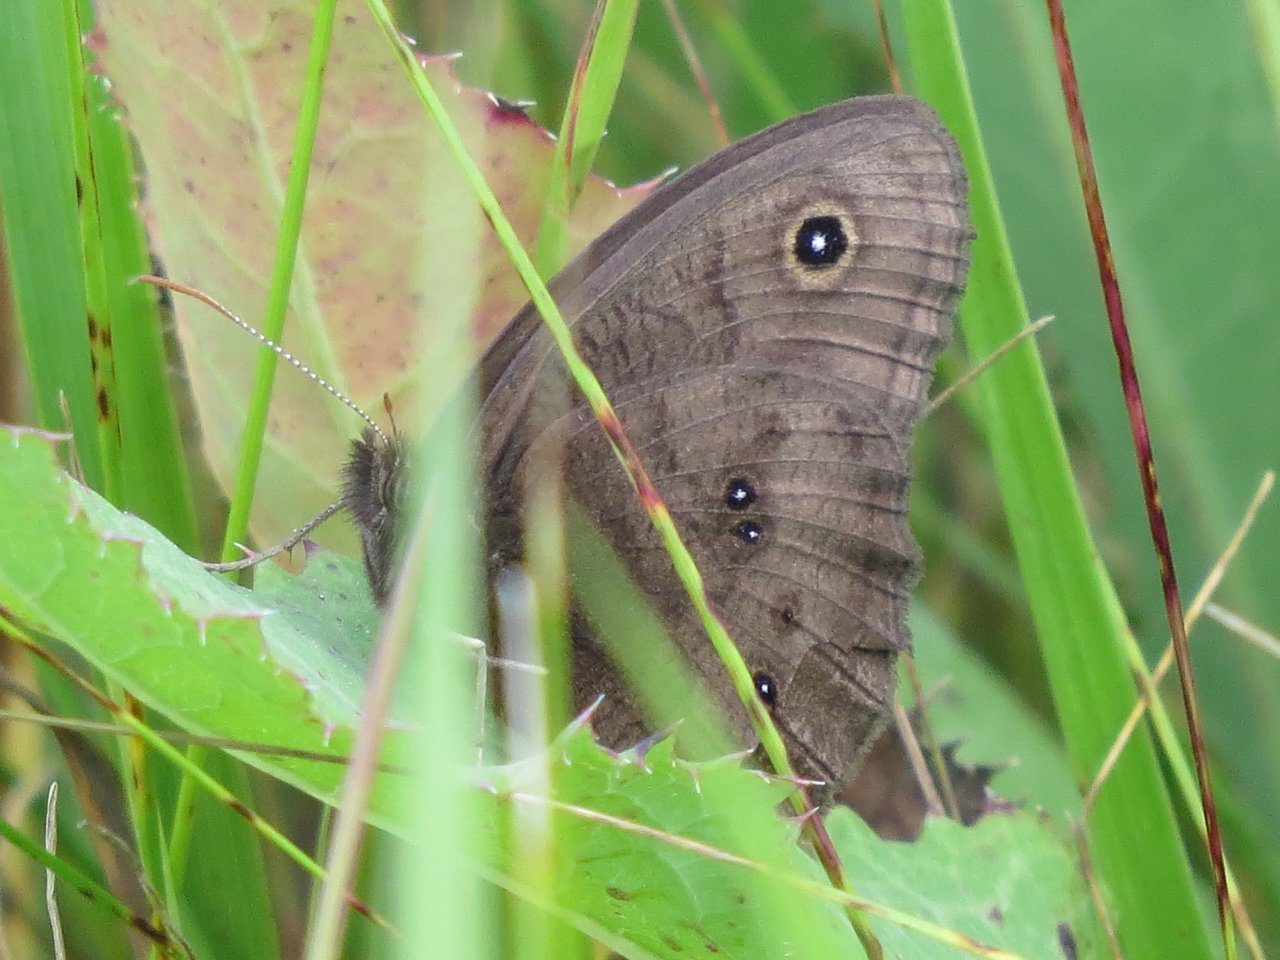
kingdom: Animalia
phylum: Arthropoda
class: Insecta
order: Lepidoptera
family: Nymphalidae
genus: Cercyonis
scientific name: Cercyonis pegala
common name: Common Wood-Nymph
